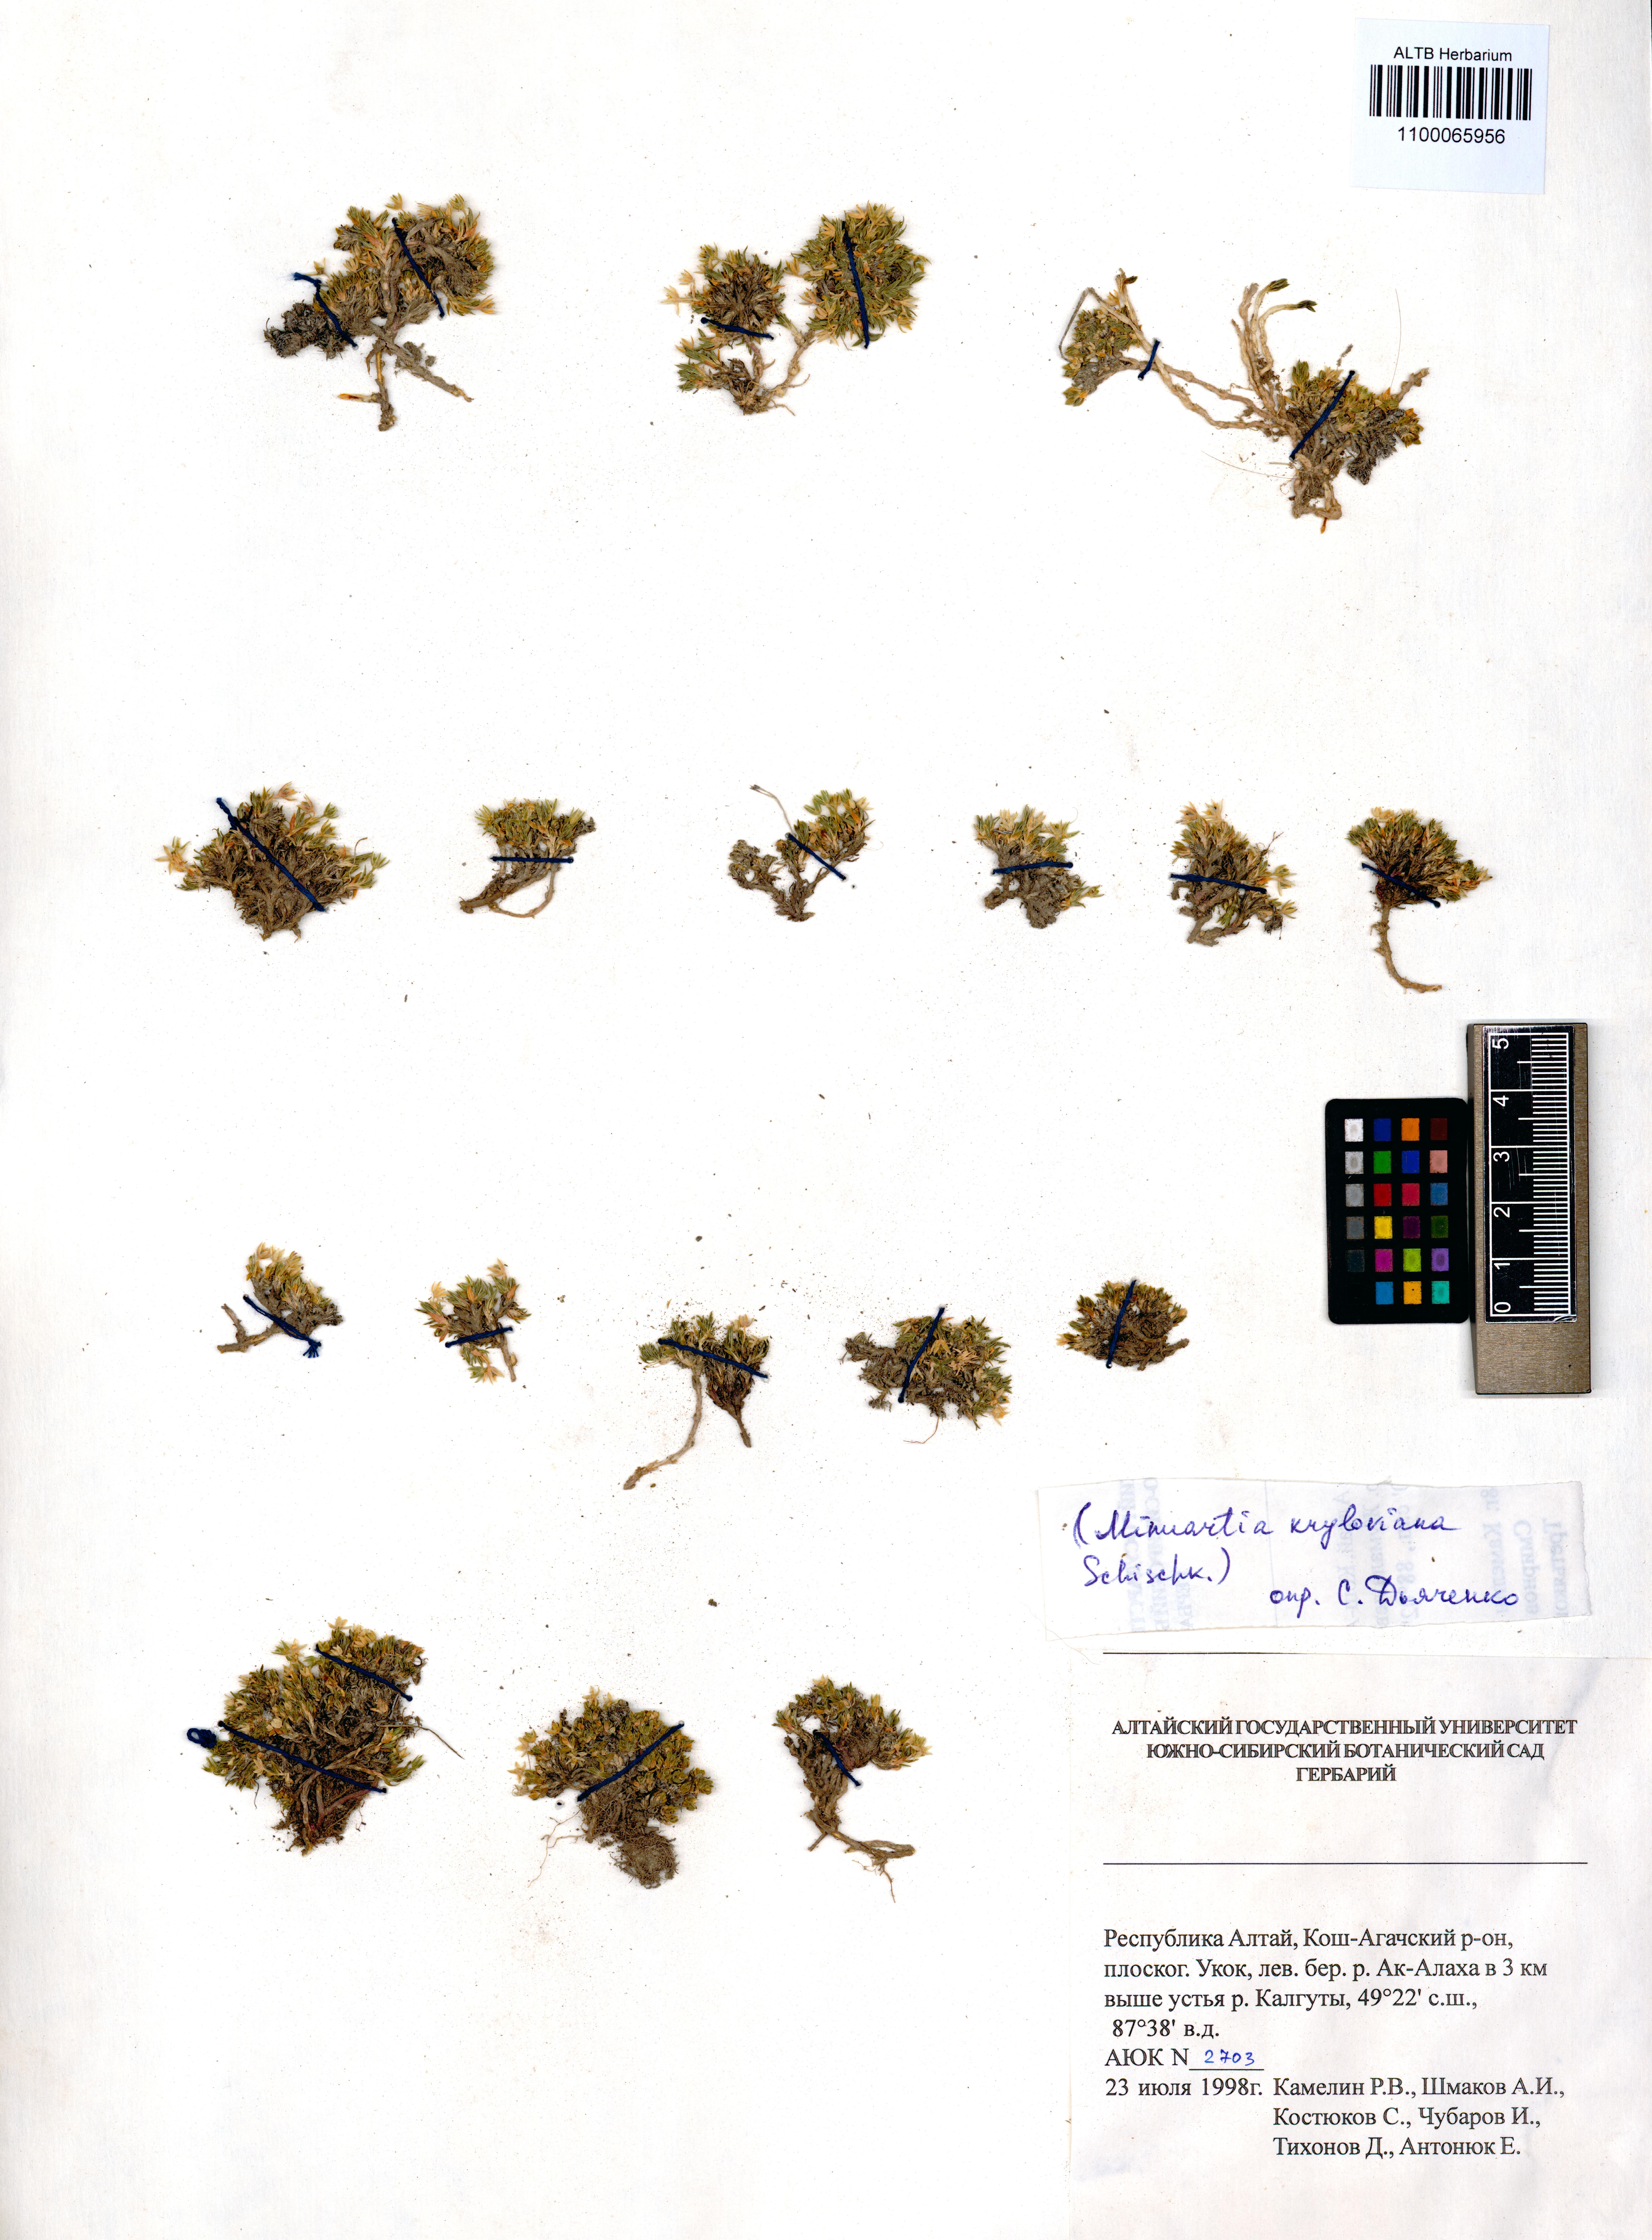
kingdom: Plantae
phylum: Tracheophyta
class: Magnoliopsida
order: Caryophyllales
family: Caryophyllaceae
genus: Sabulina
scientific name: Sabulina kryloviana
